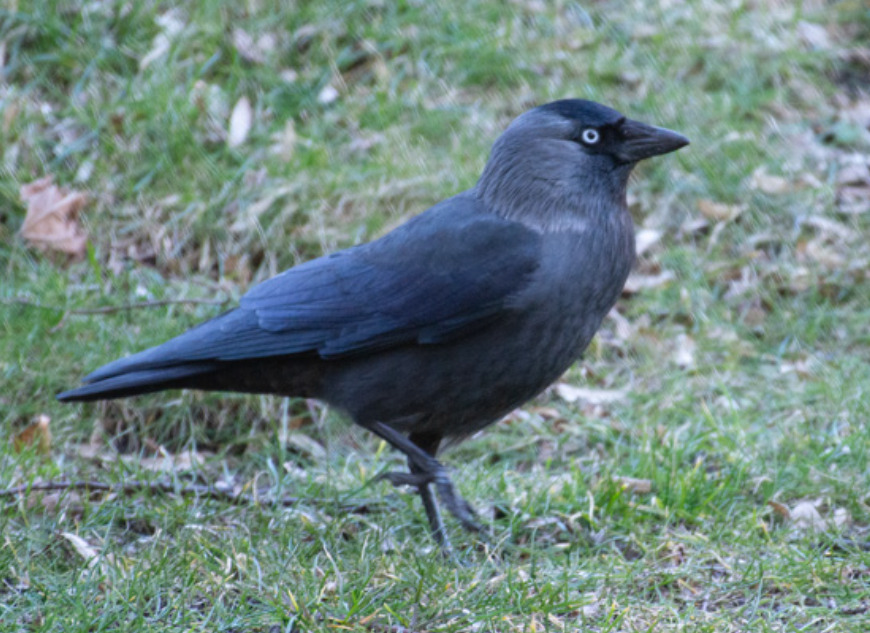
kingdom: Animalia
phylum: Chordata
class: Aves
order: Passeriformes
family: Corvidae
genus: Coloeus
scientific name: Coloeus monedula
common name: Allike
